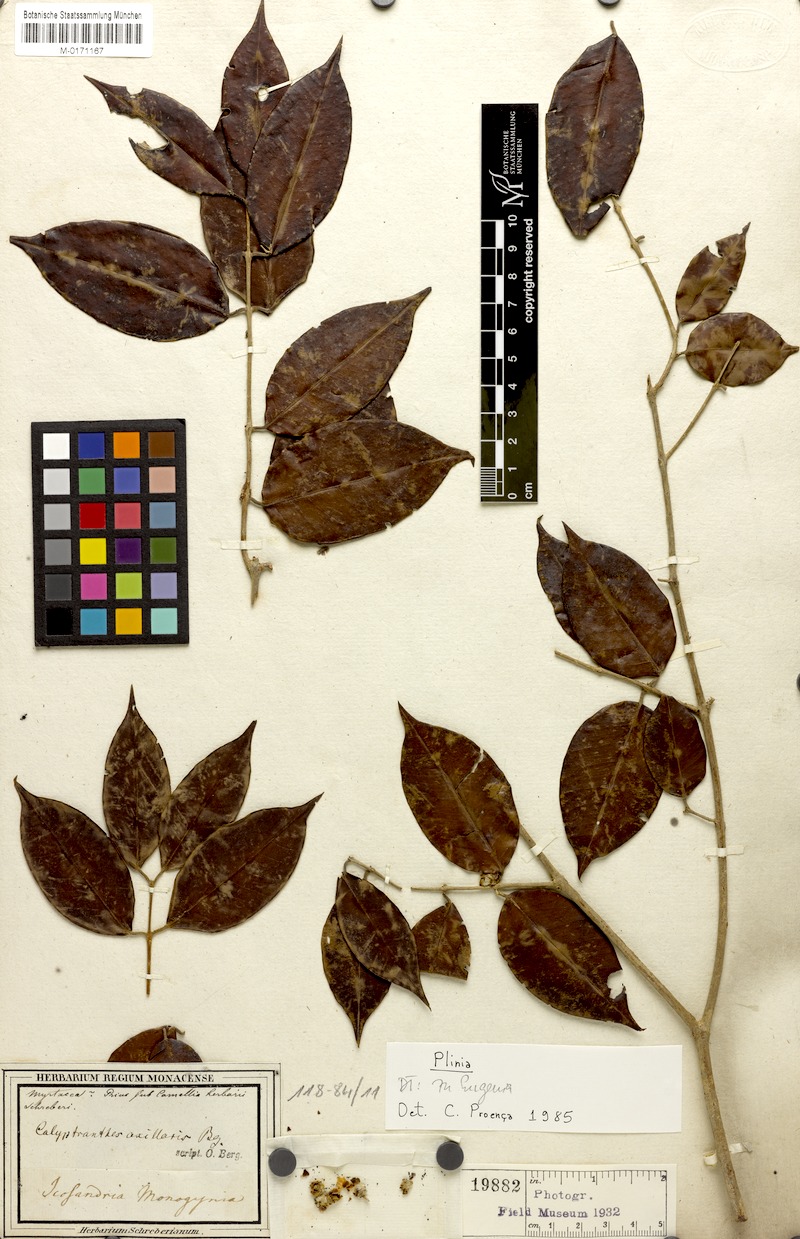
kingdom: Plantae
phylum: Tracheophyta
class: Magnoliopsida
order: Myrtales
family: Myrtaceae
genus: Neomitranthes
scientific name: Neomitranthes obscura
